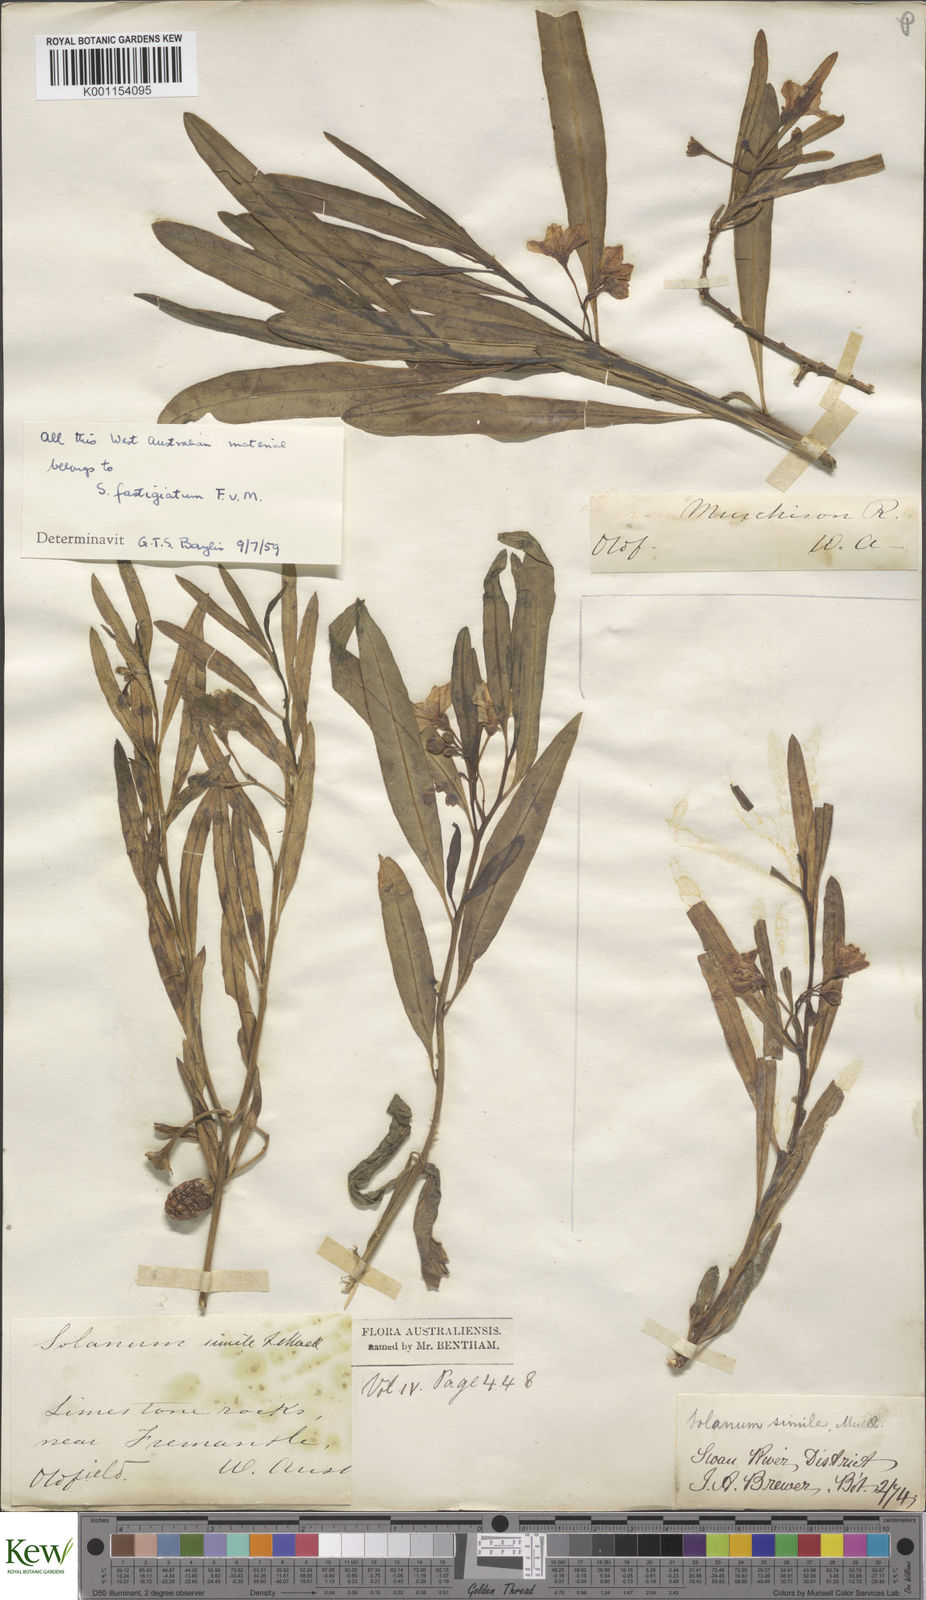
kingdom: Plantae
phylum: Tracheophyta
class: Magnoliopsida
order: Solanales
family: Solanaceae
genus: Solanum
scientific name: Solanum symonii
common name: South australian kangaroo-apple
